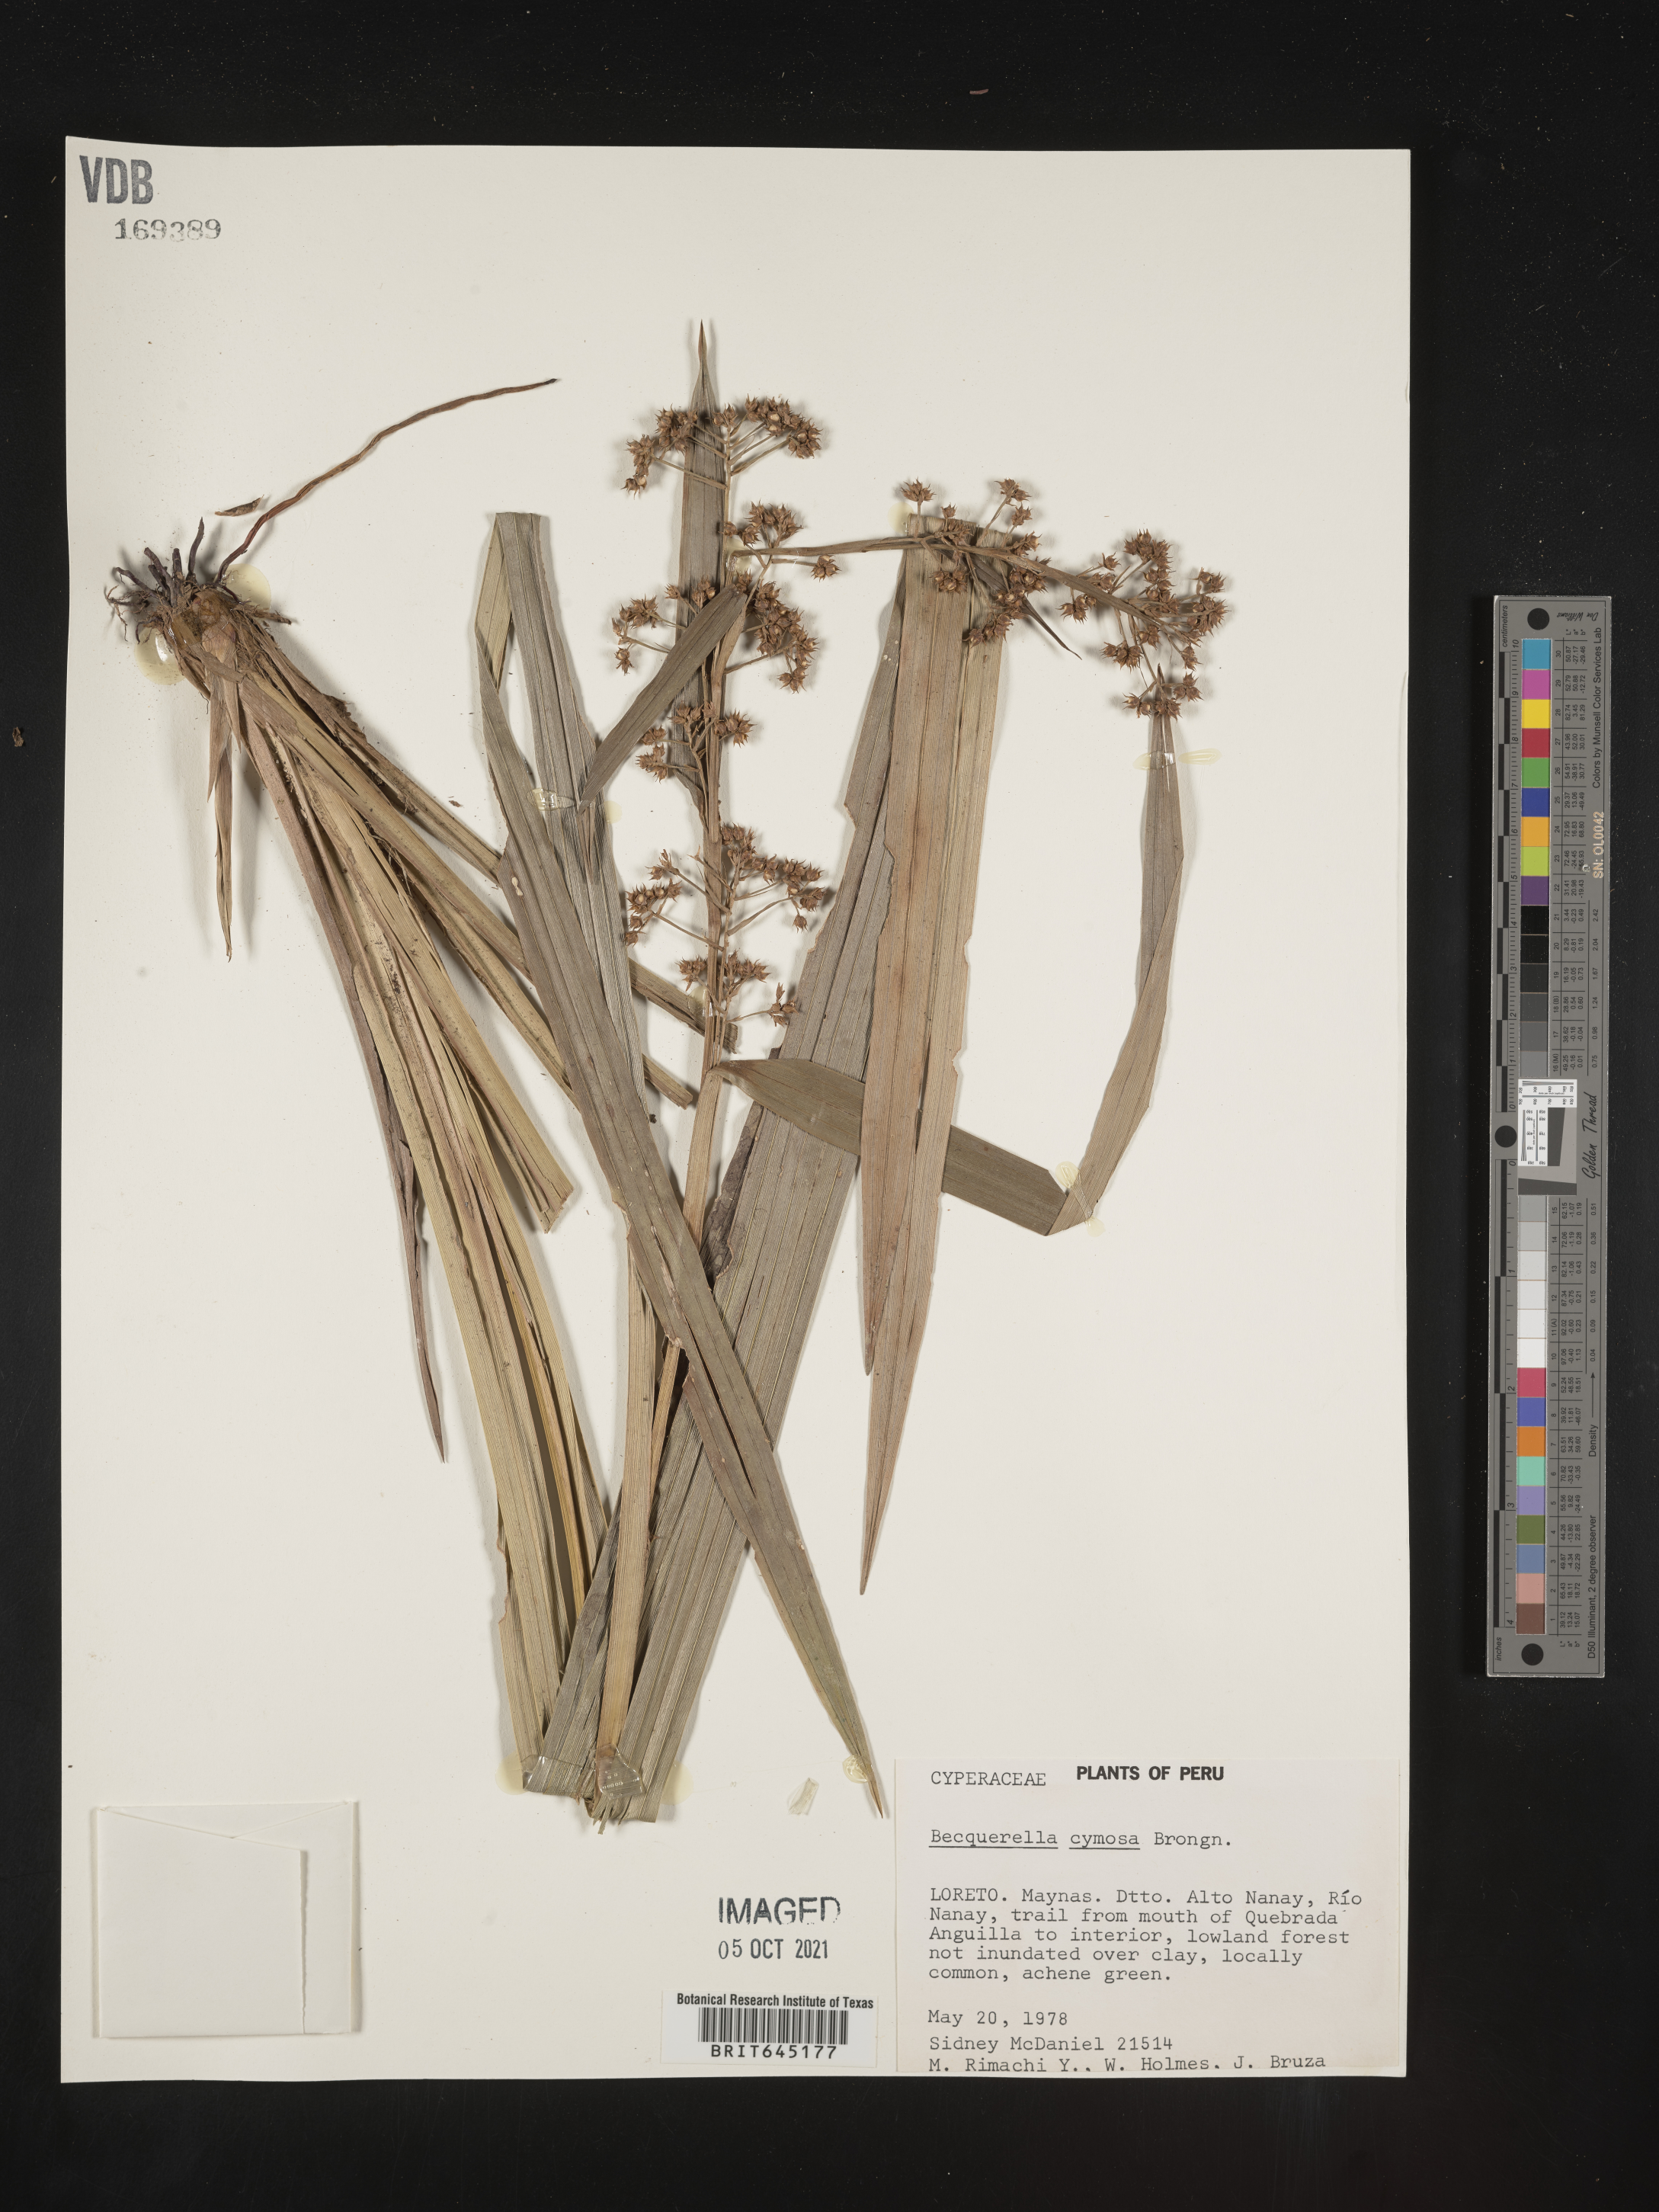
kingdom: Plantae
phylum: Tracheophyta
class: Liliopsida
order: Poales
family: Cyperaceae
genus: Becquerelia
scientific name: Becquerelia merkeliana
